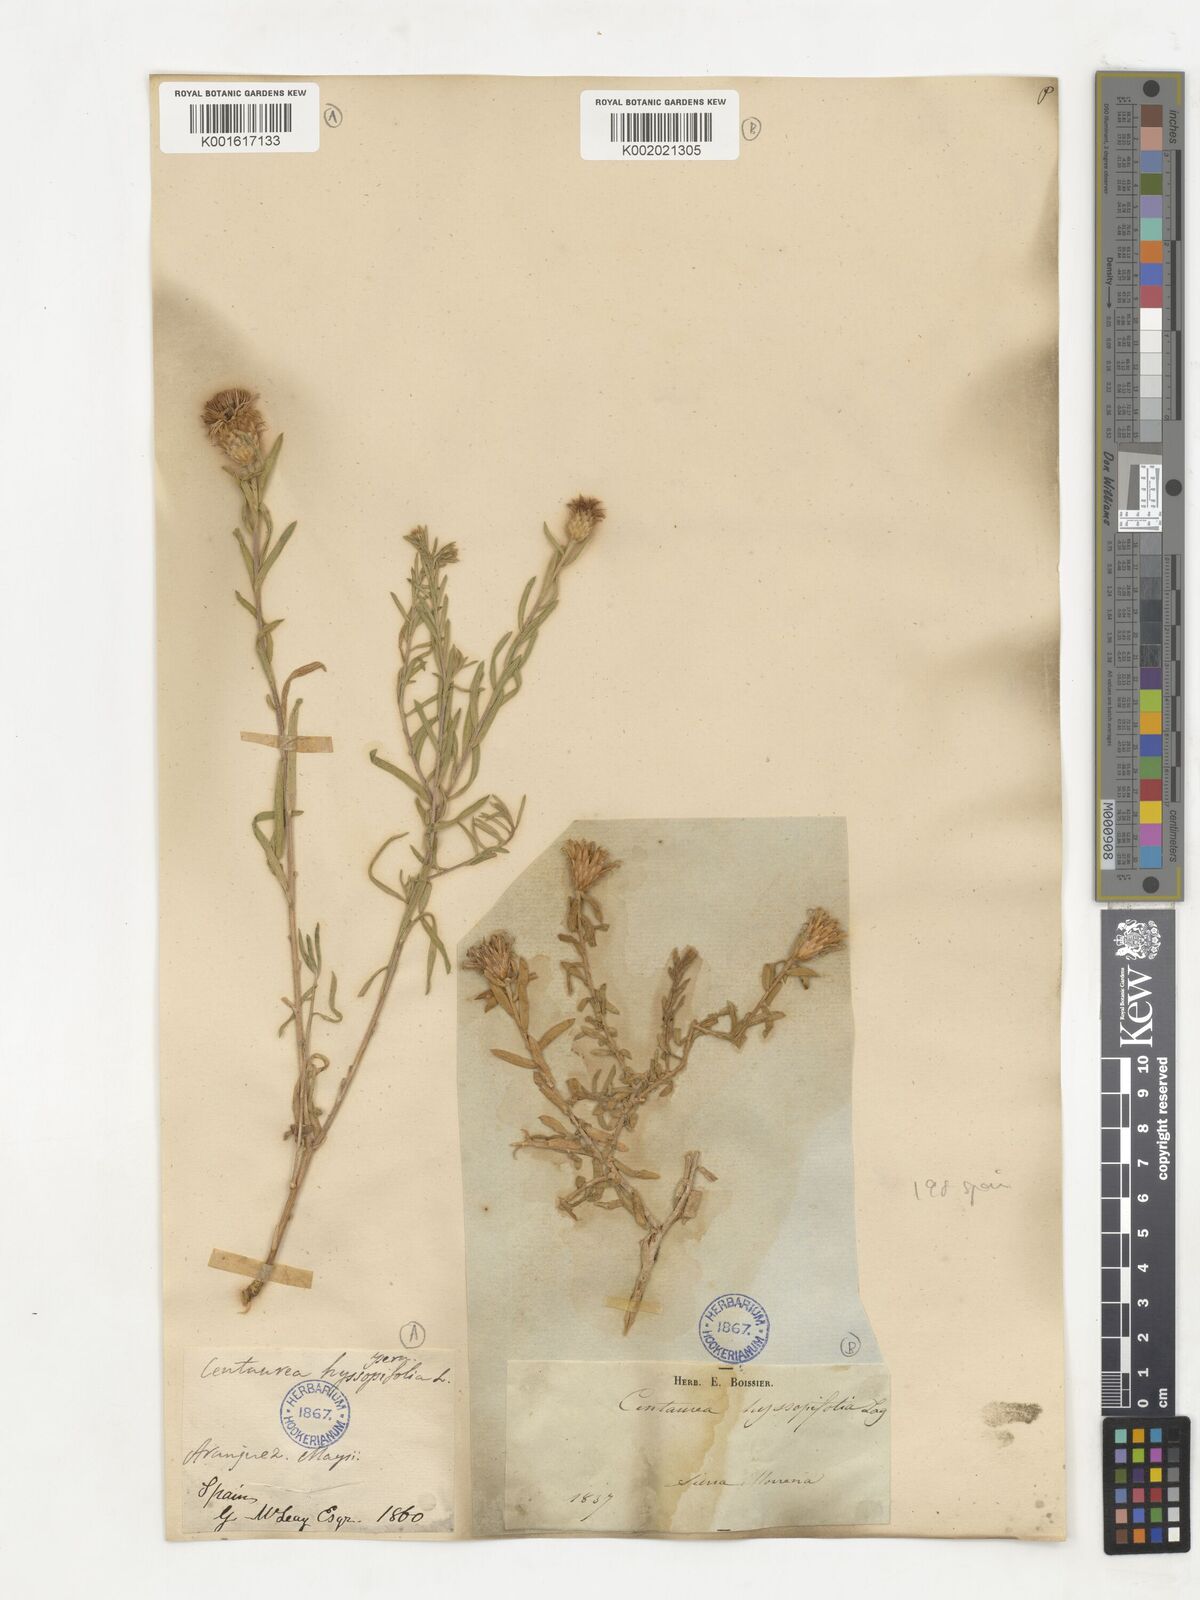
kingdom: Plantae
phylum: Tracheophyta
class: Magnoliopsida
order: Asterales
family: Asteraceae
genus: Centaurea
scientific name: Centaurea hyssopifolia
